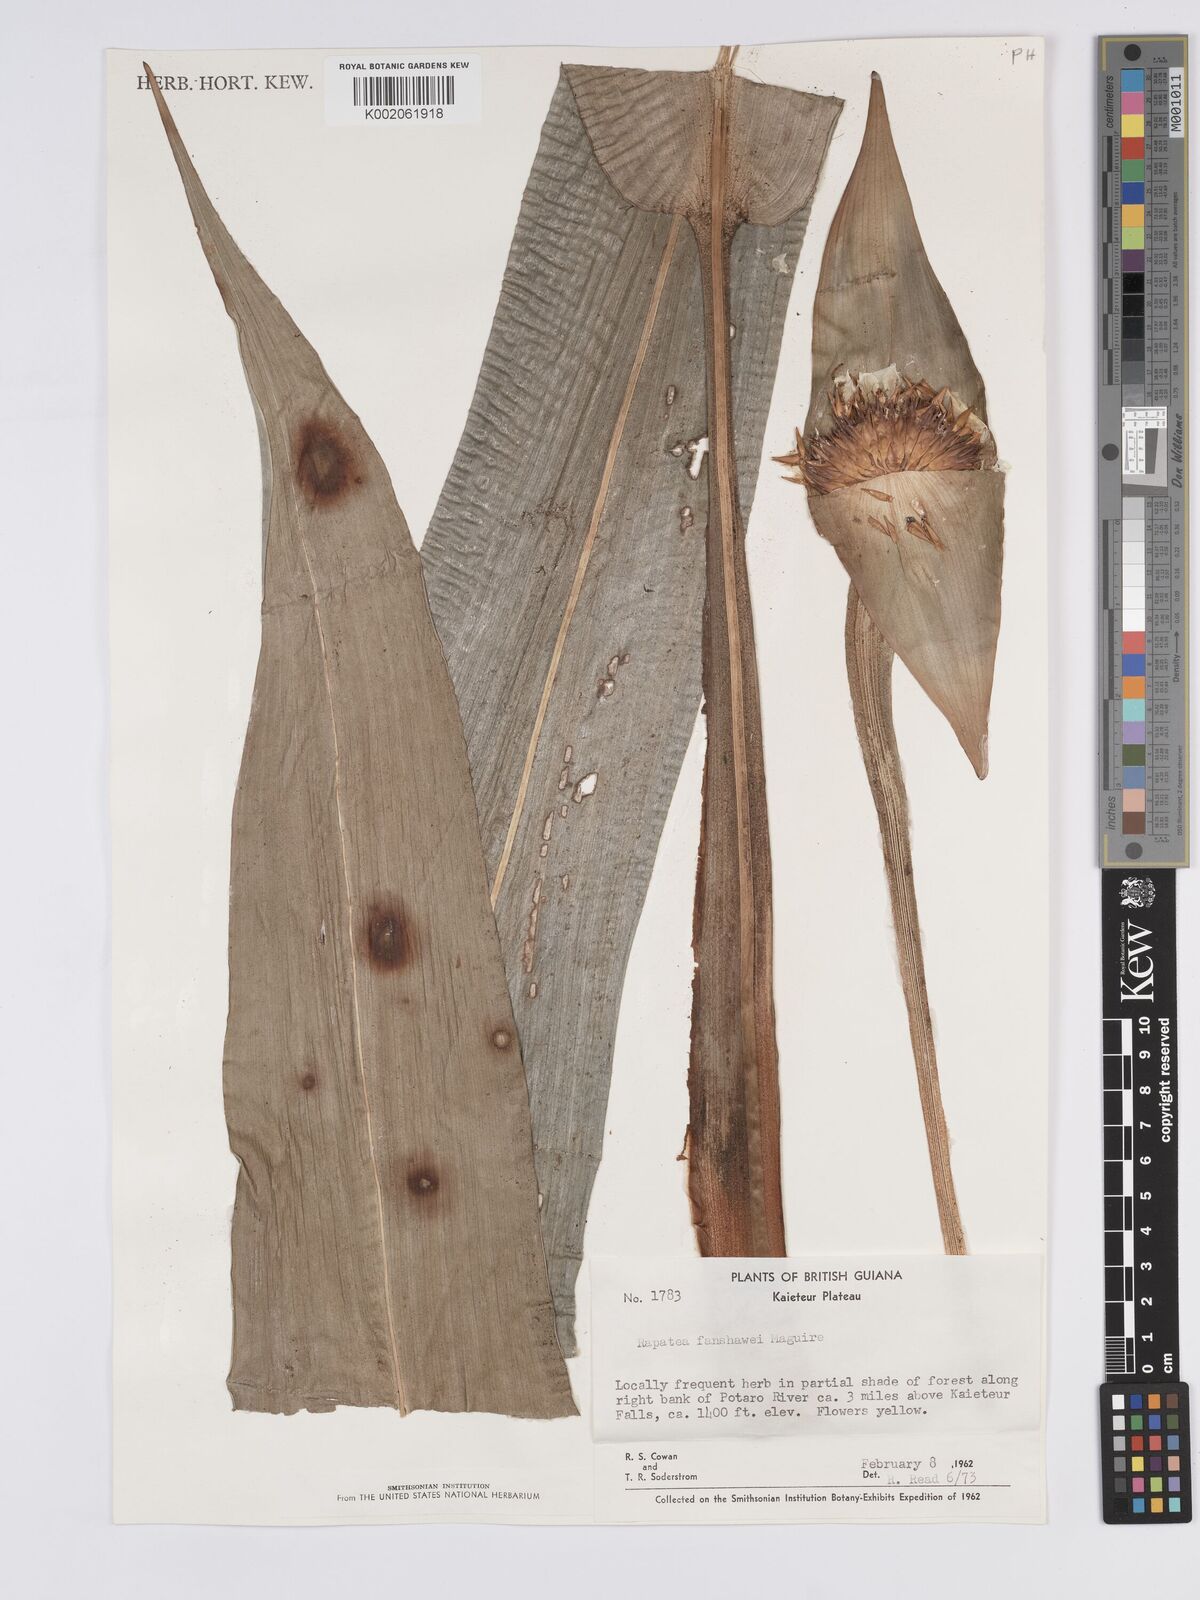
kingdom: Plantae
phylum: Tracheophyta
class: Liliopsida
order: Poales
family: Rapateaceae
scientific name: Rapateaceae
